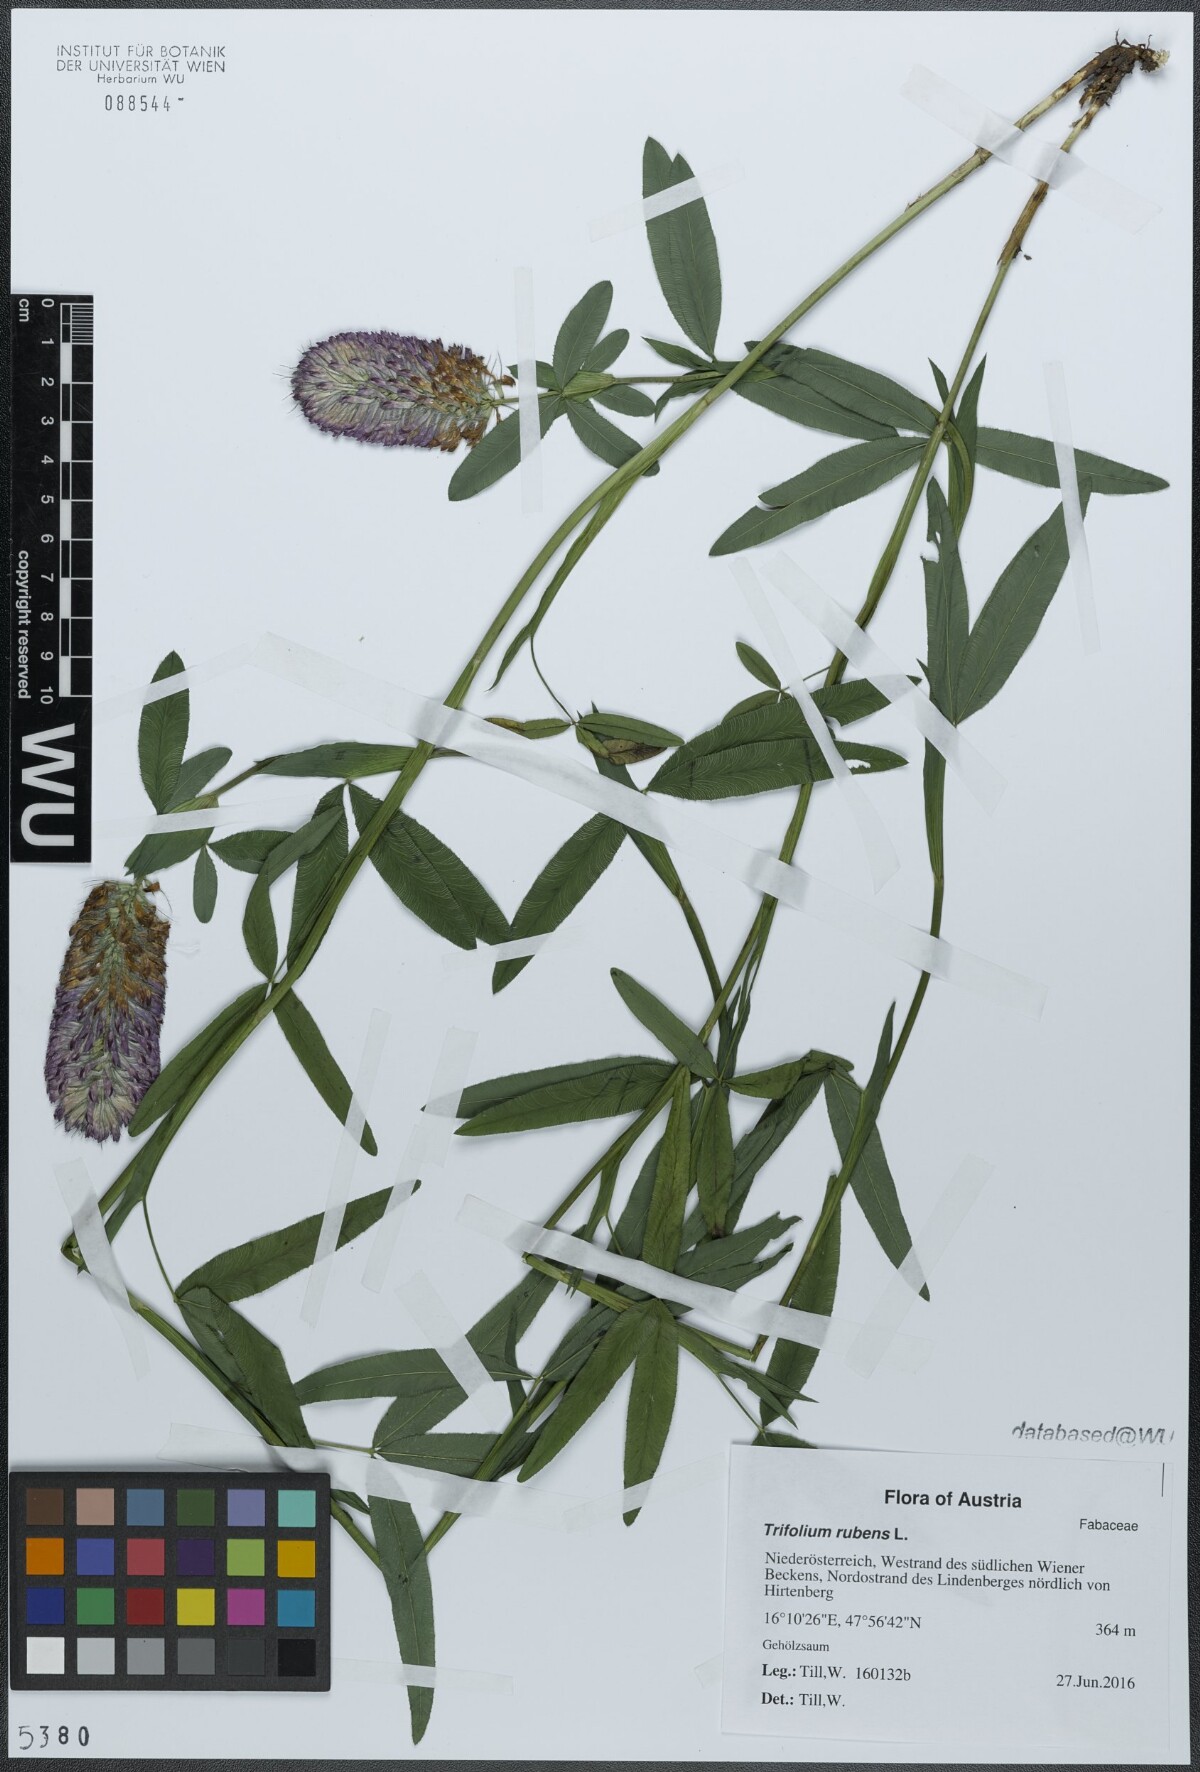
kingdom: Plantae
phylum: Tracheophyta
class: Magnoliopsida
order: Fabales
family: Fabaceae
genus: Trifolium
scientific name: Trifolium rubens
